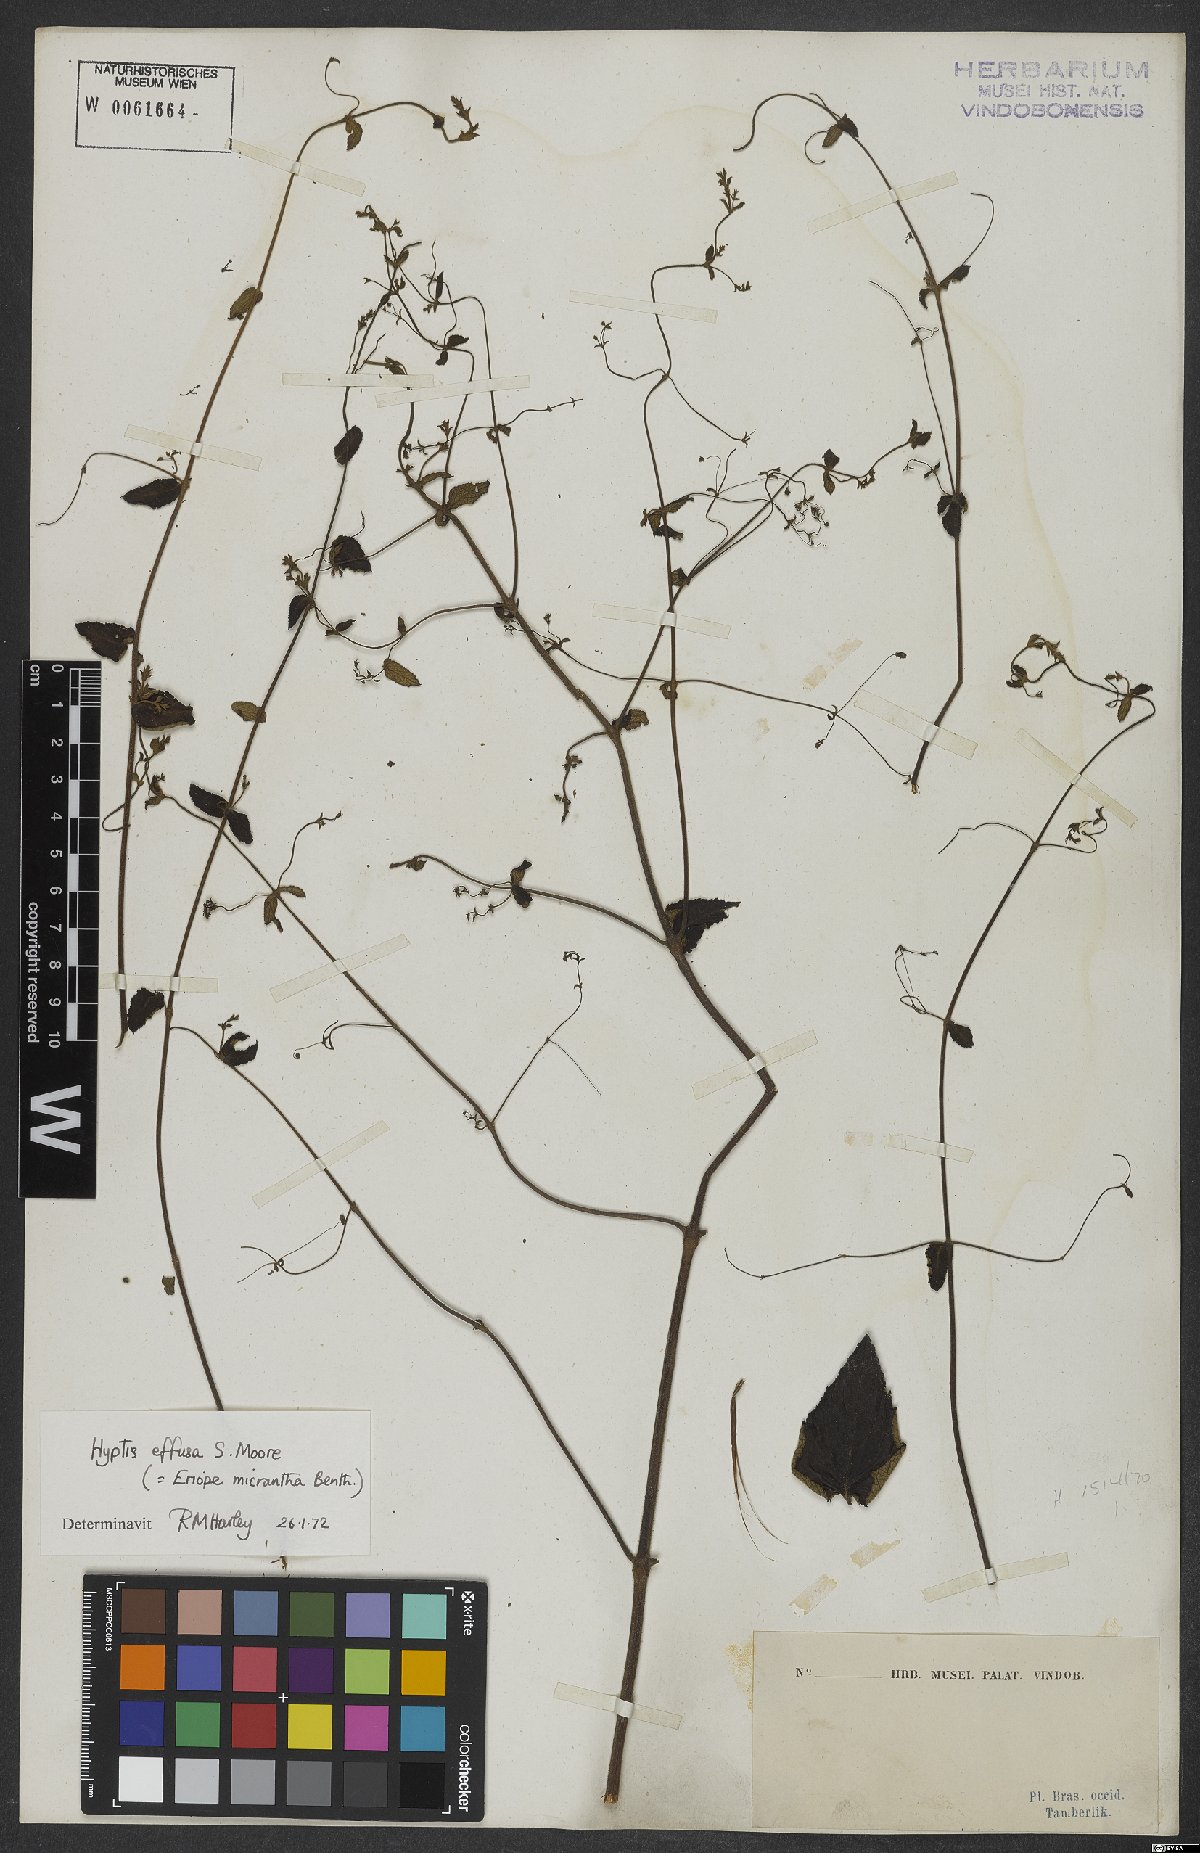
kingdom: Plantae
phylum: Tracheophyta
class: Magnoliopsida
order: Lamiales
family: Lamiaceae
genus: Hypenia
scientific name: Hypenia micrantha
